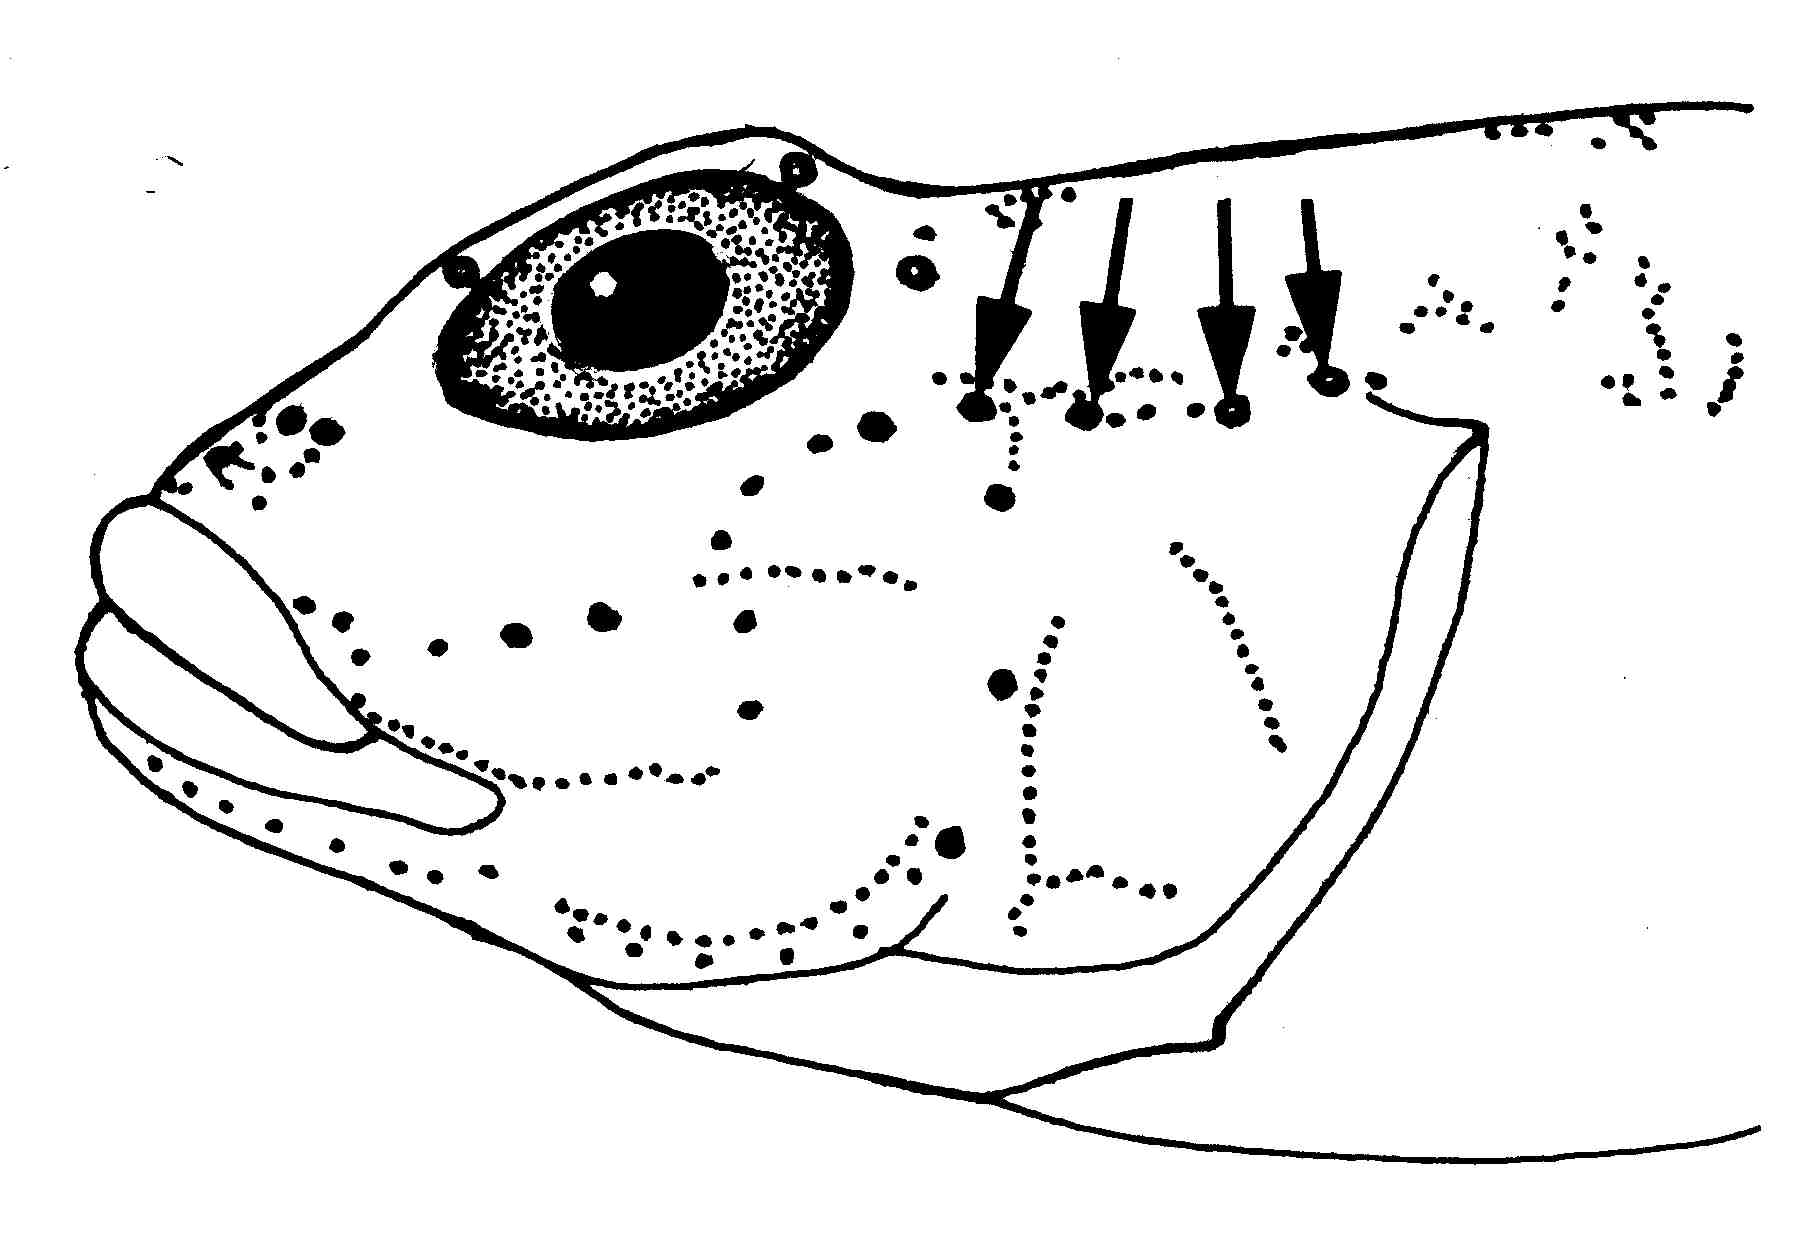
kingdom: Animalia
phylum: Chordata
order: Perciformes
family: Gobiidae
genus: Fusigobius
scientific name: Fusigobius inframaculatus
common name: Blotched goby
